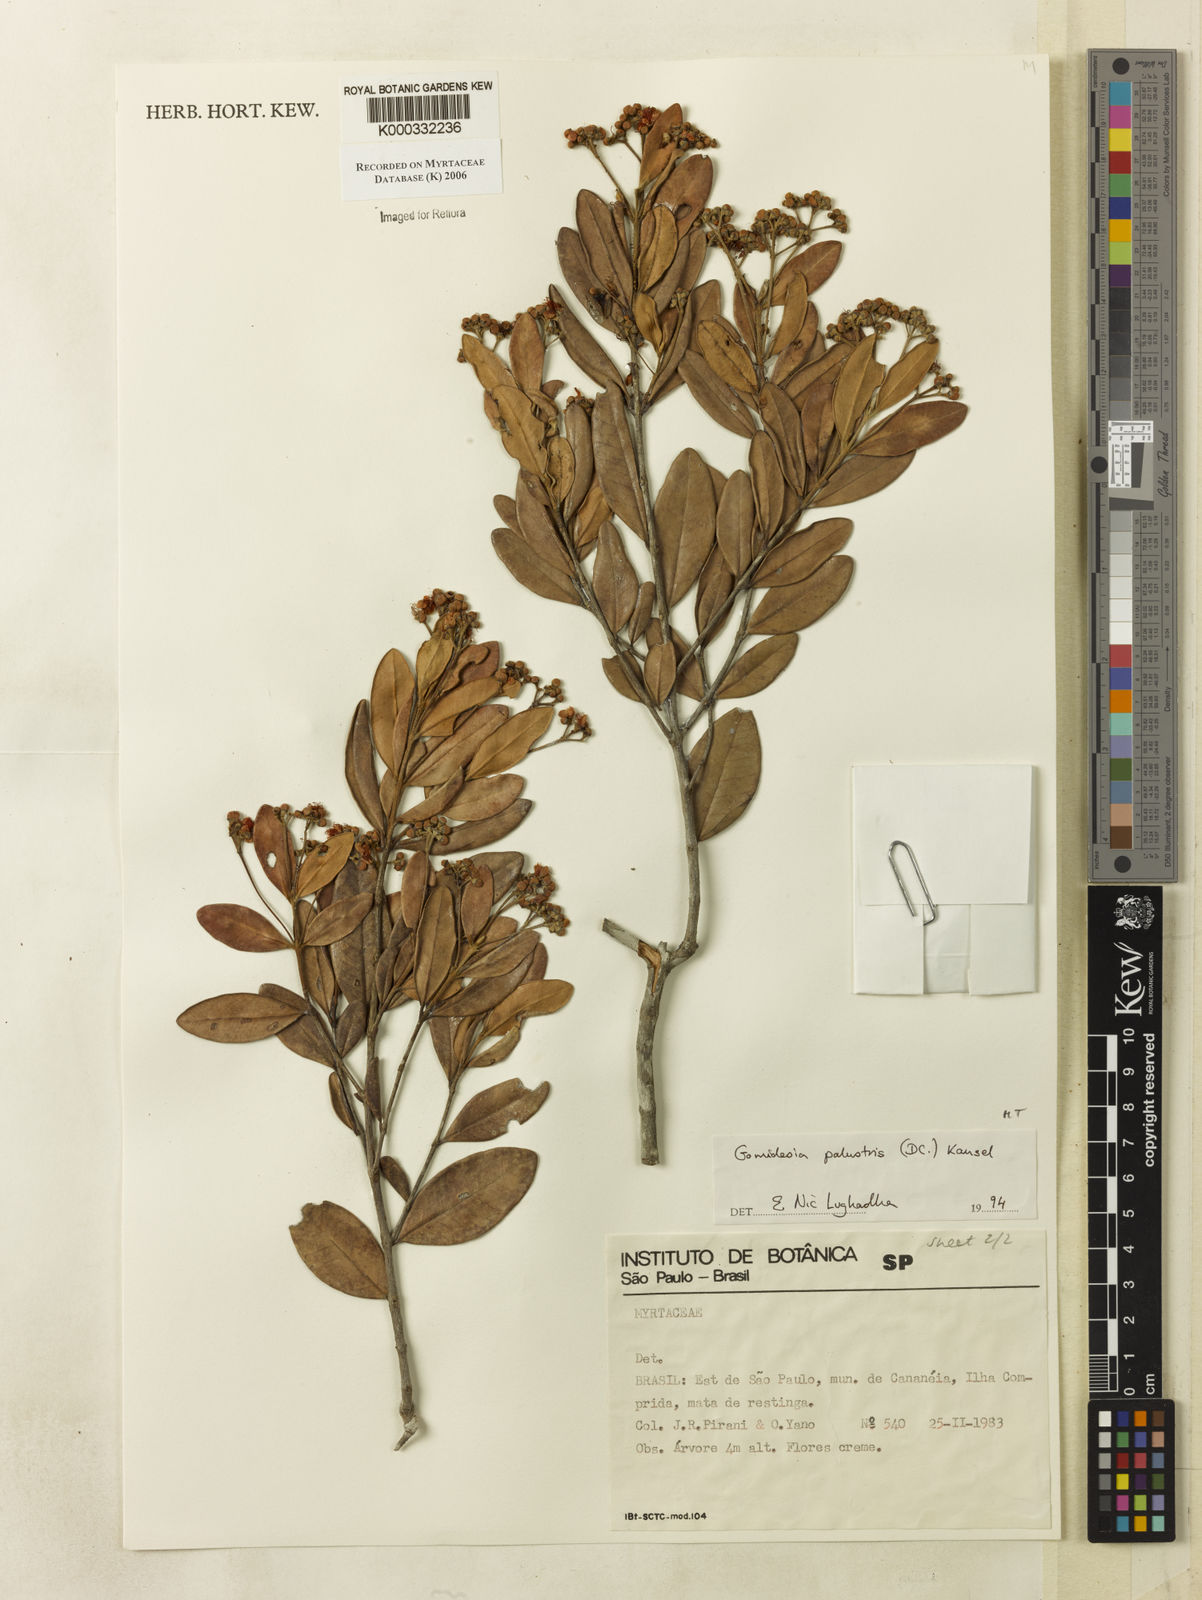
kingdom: Plantae
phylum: Tracheophyta
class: Magnoliopsida
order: Myrtales
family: Myrtaceae
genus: Myrcia
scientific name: Myrcia palustris
